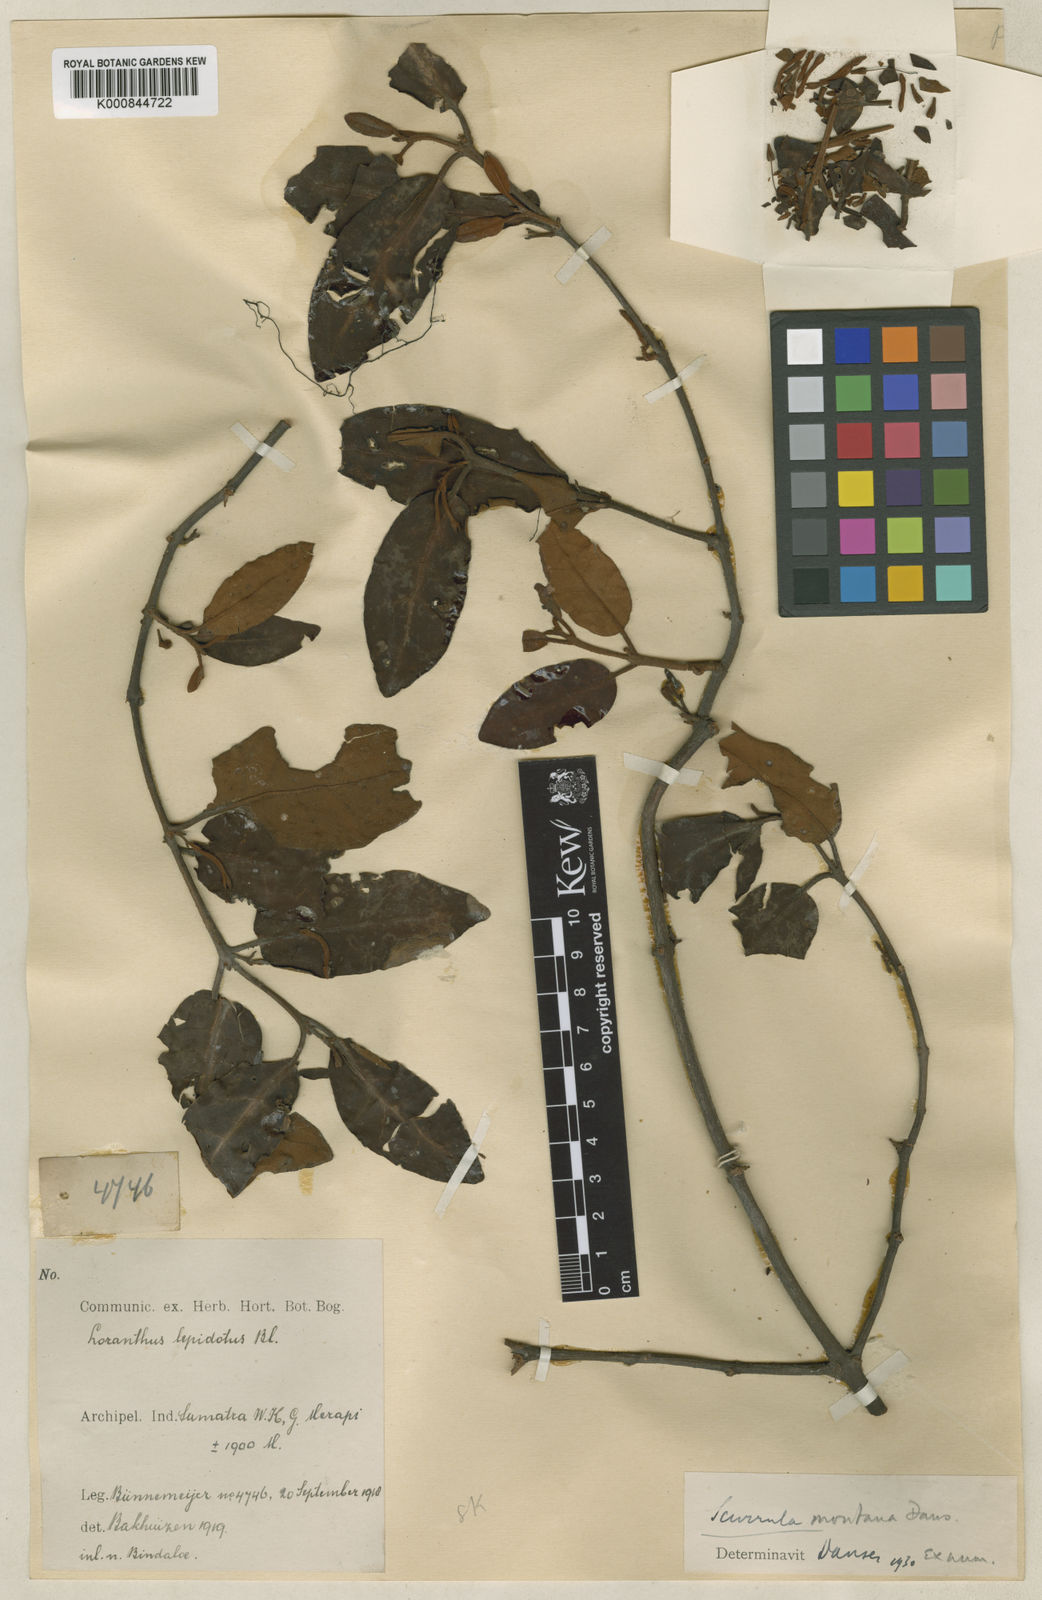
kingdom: Plantae
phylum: Tracheophyta
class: Magnoliopsida
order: Santalales
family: Loranthaceae
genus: Scurrula
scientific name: Scurrula montana
